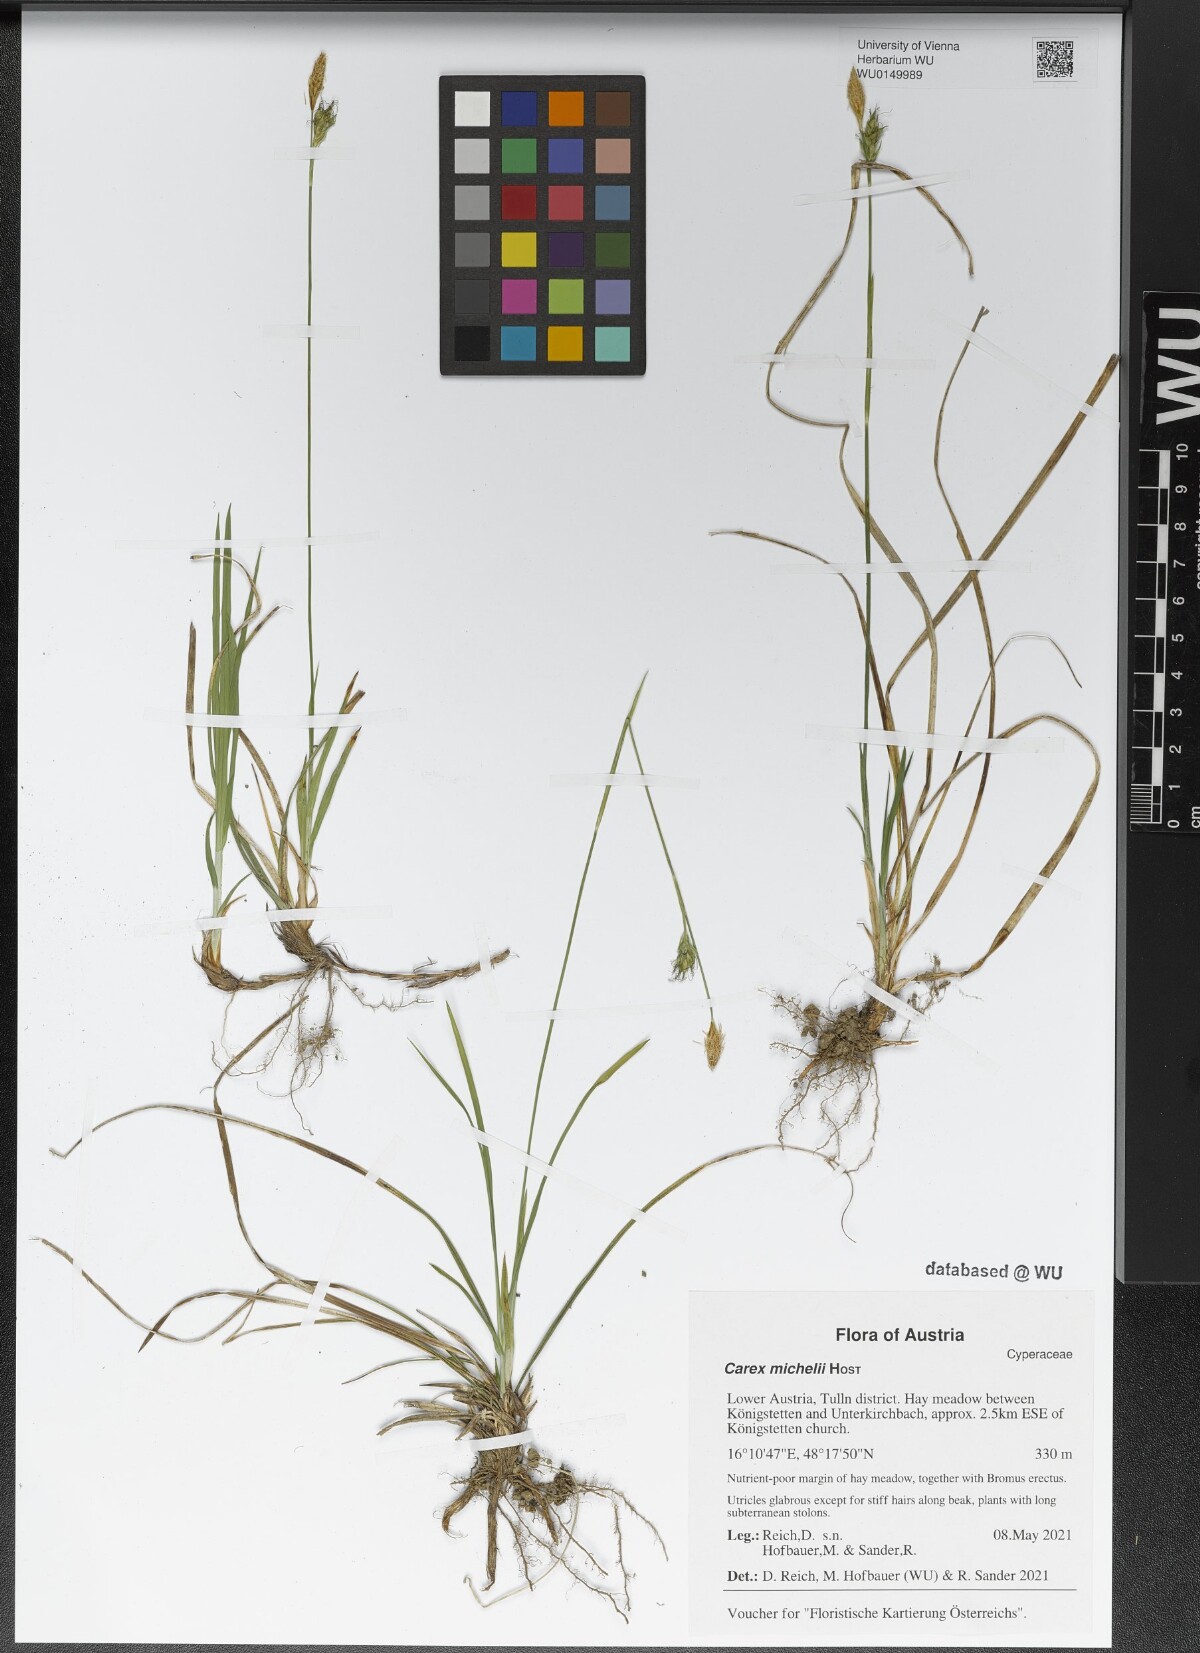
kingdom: Plantae
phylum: Tracheophyta
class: Liliopsida
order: Poales
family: Cyperaceae
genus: Carex
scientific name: Carex michelii
